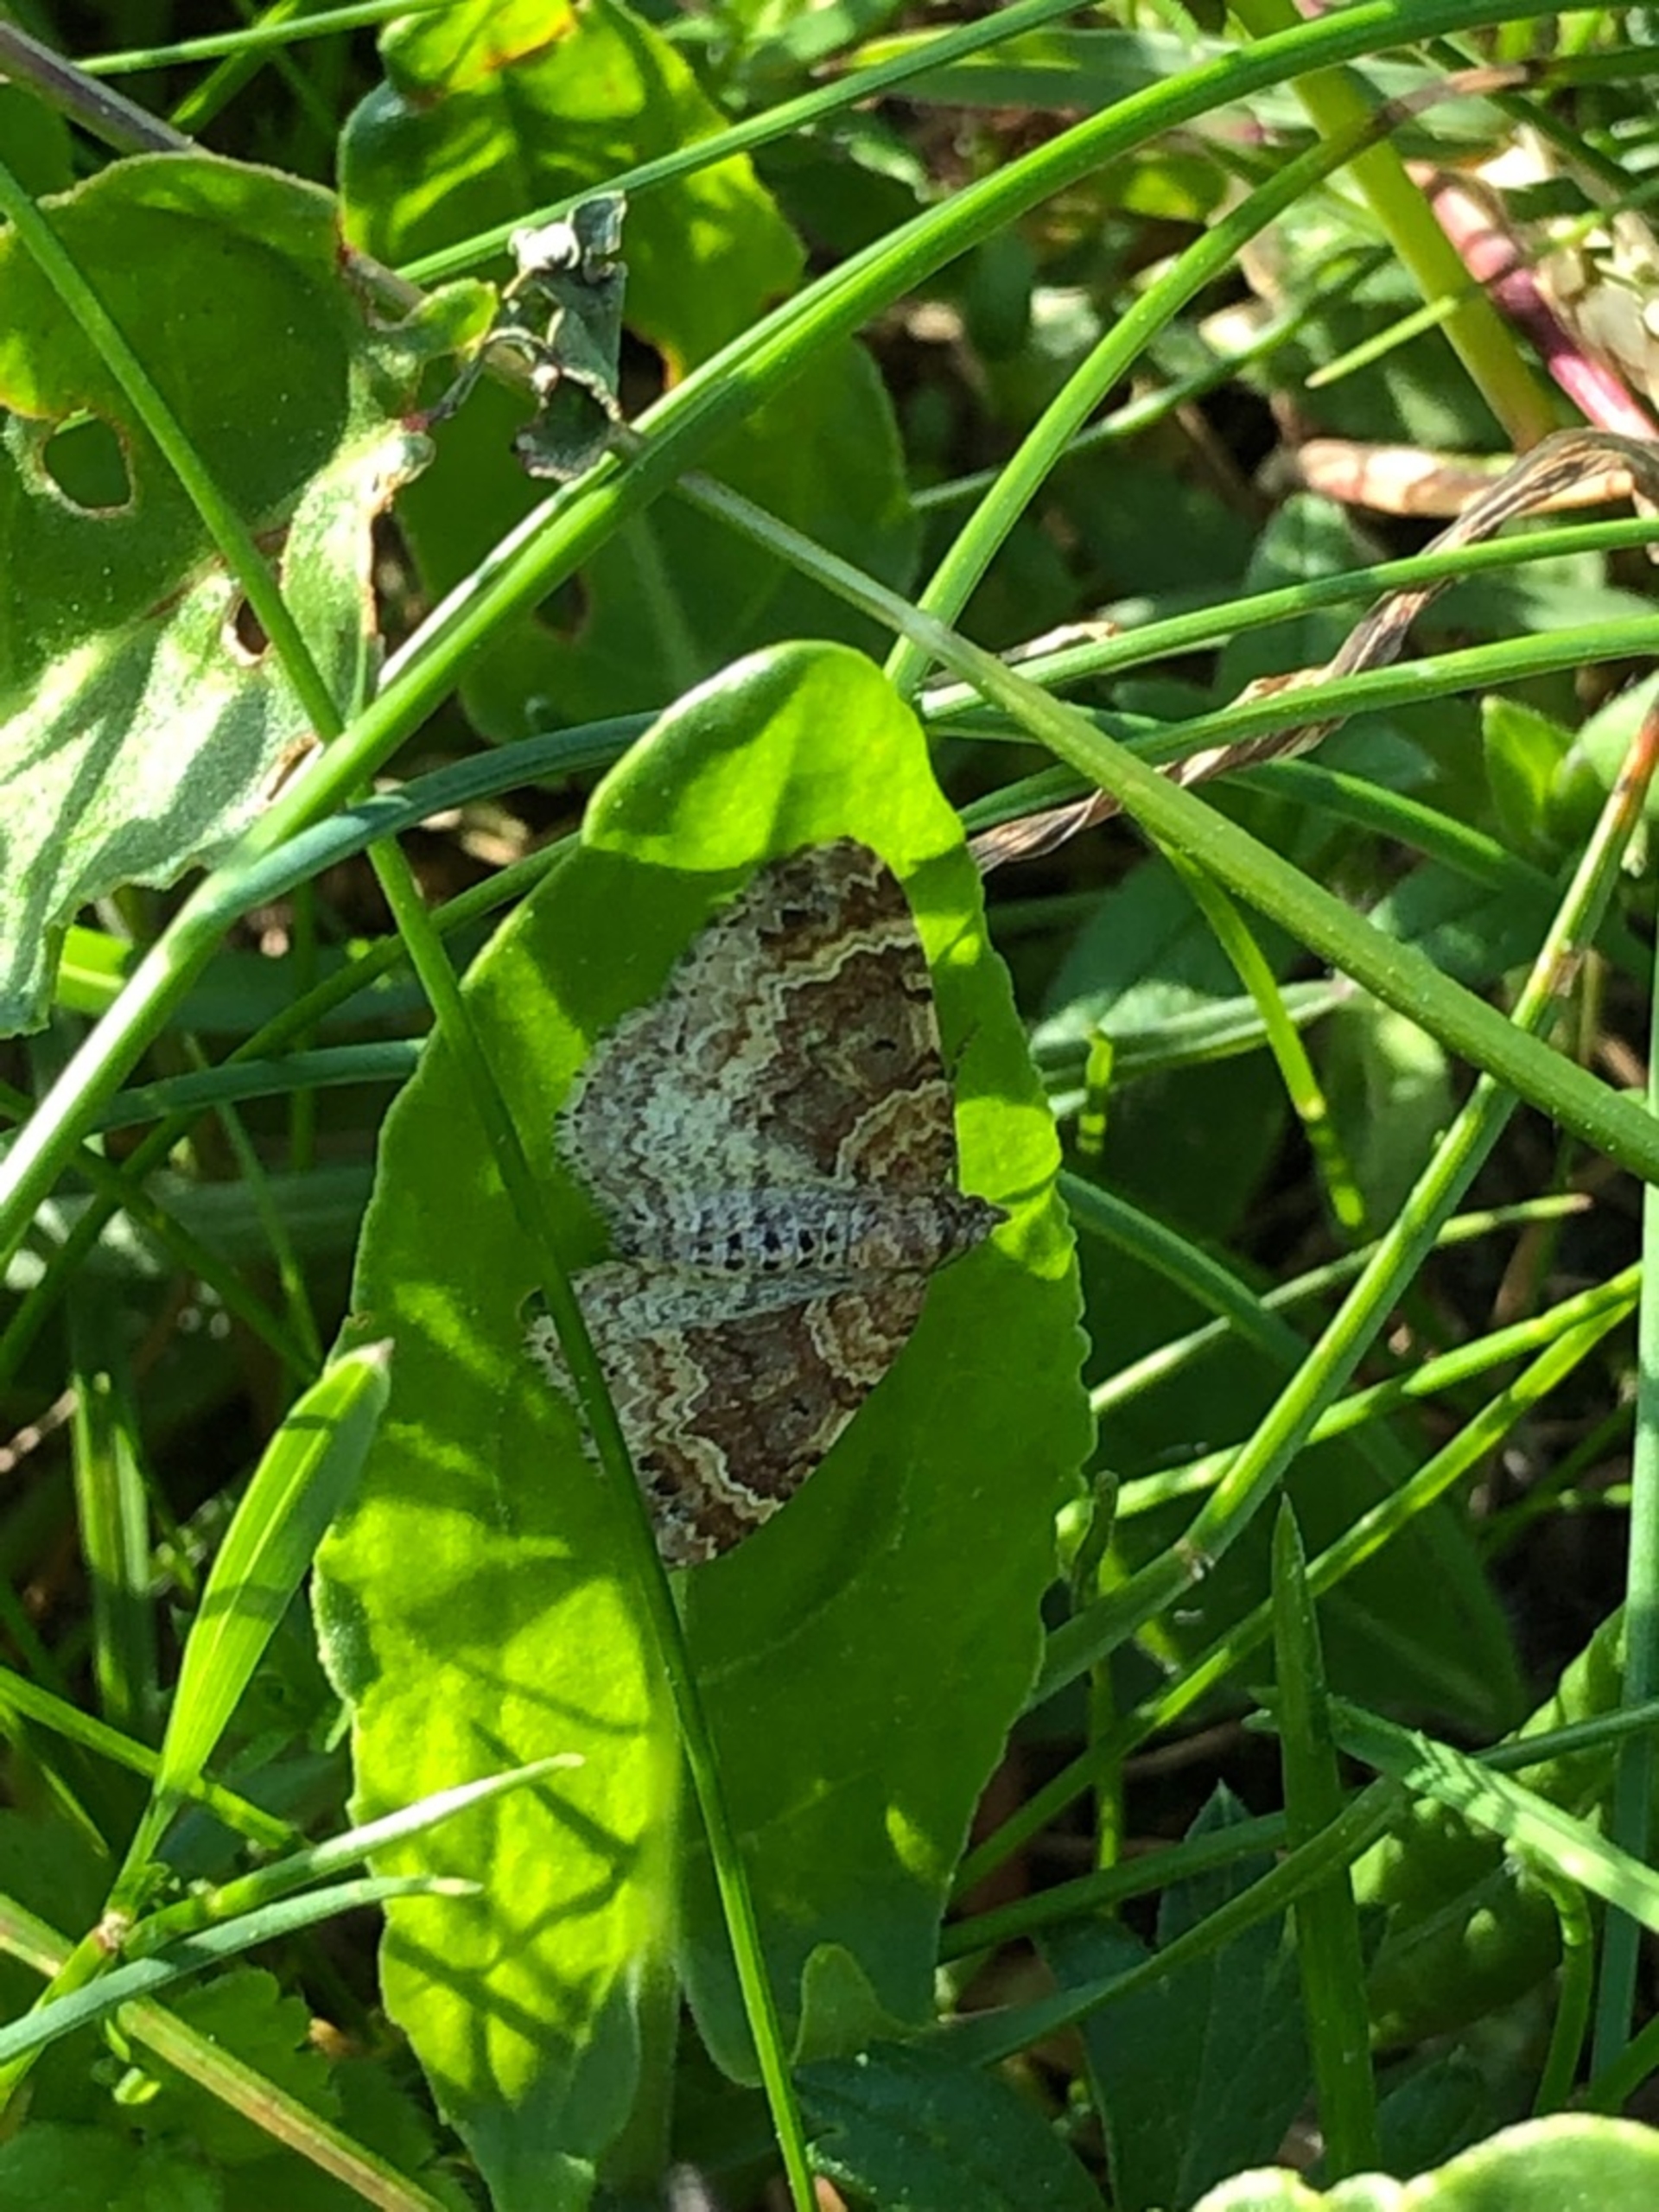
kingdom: Animalia
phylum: Arthropoda
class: Insecta
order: Lepidoptera
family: Geometridae
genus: Xanthorhoe
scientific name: Xanthorhoe spadicearia
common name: Brunrød bladmåler
